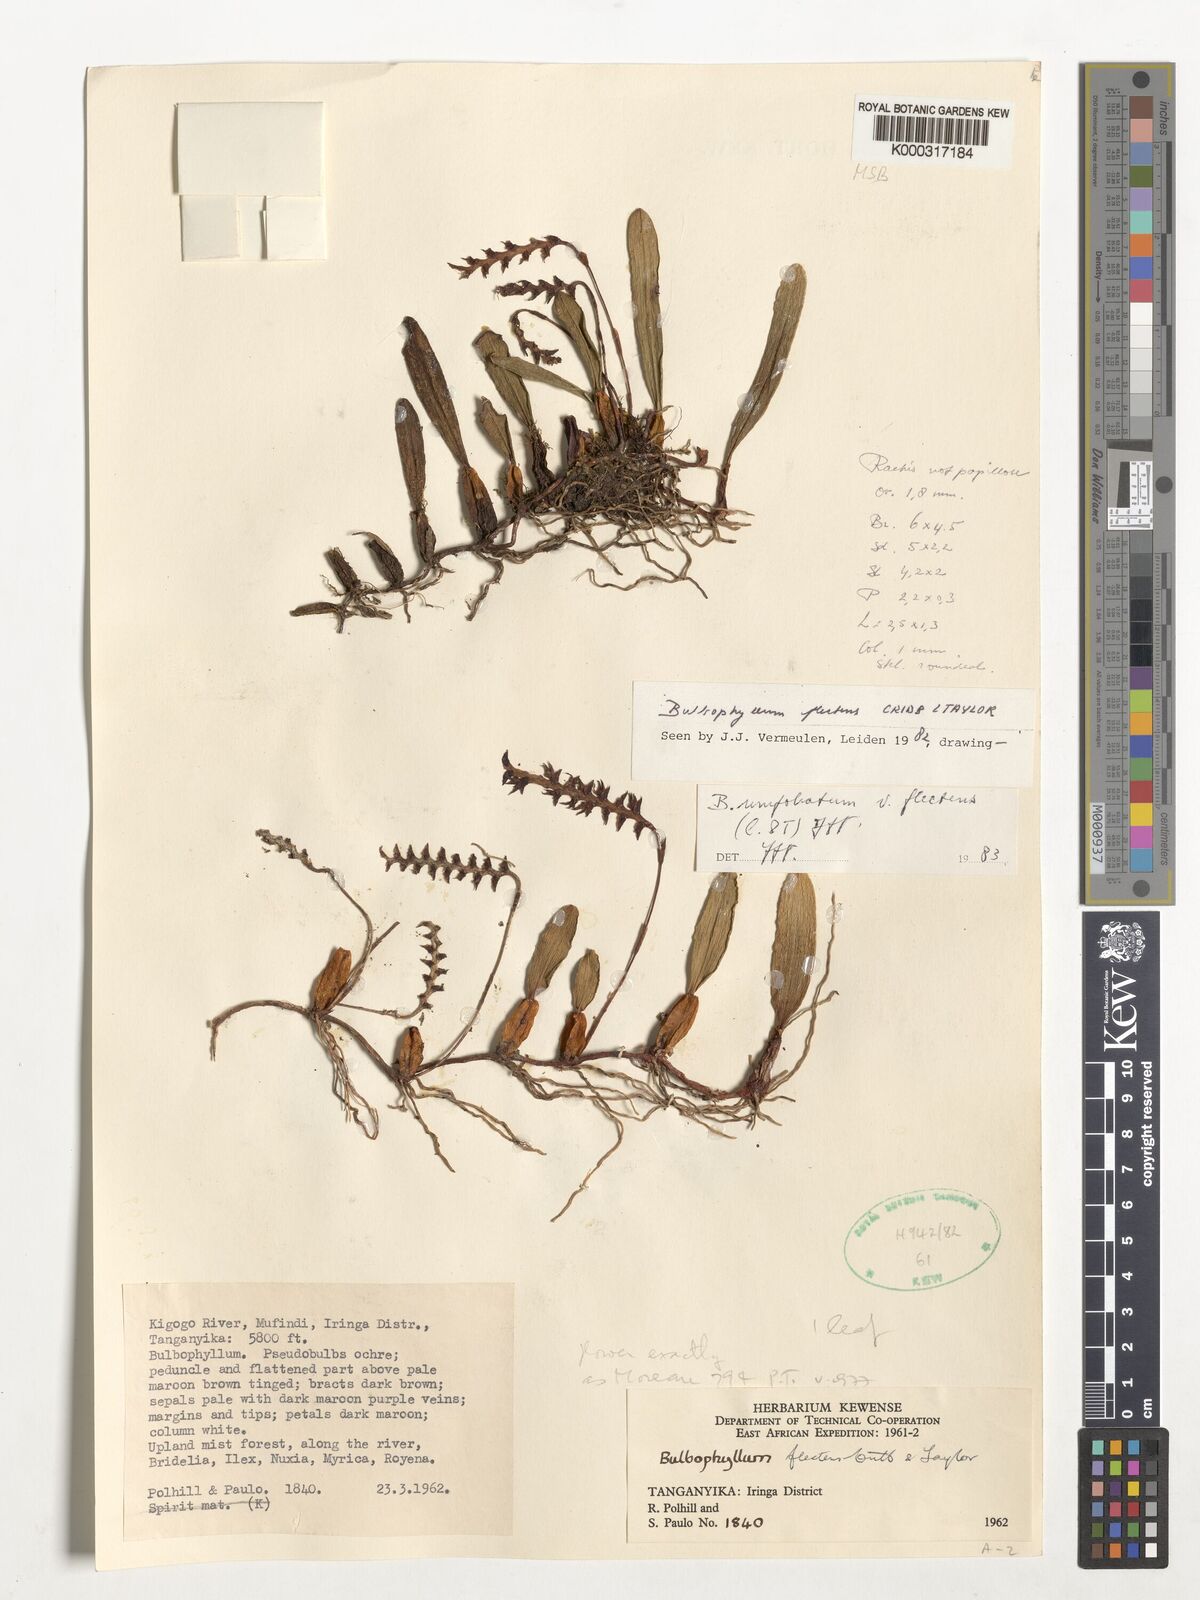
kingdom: Plantae
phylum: Tracheophyta
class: Liliopsida
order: Asparagales
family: Orchidaceae
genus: Bulbophyllum
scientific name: Bulbophyllum unifoliatum
